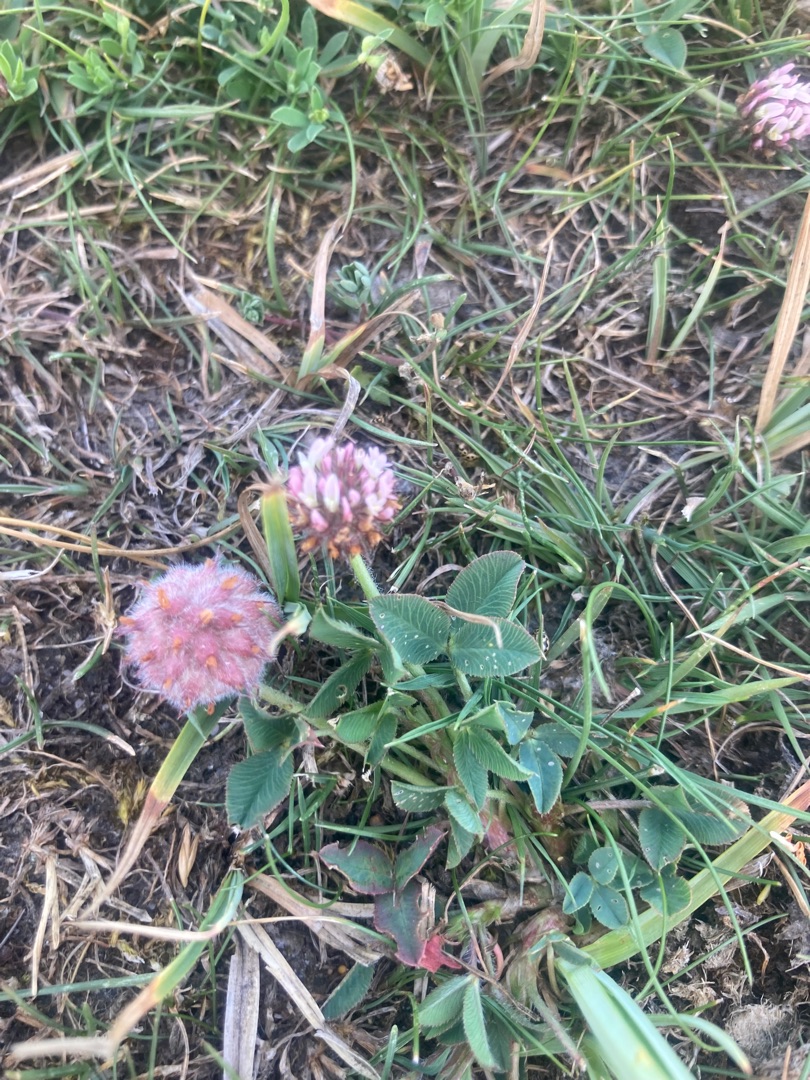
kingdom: Plantae
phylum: Tracheophyta
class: Magnoliopsida
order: Fabales
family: Fabaceae
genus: Trifolium
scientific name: Trifolium fragiferum
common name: Jordbær-kløver
